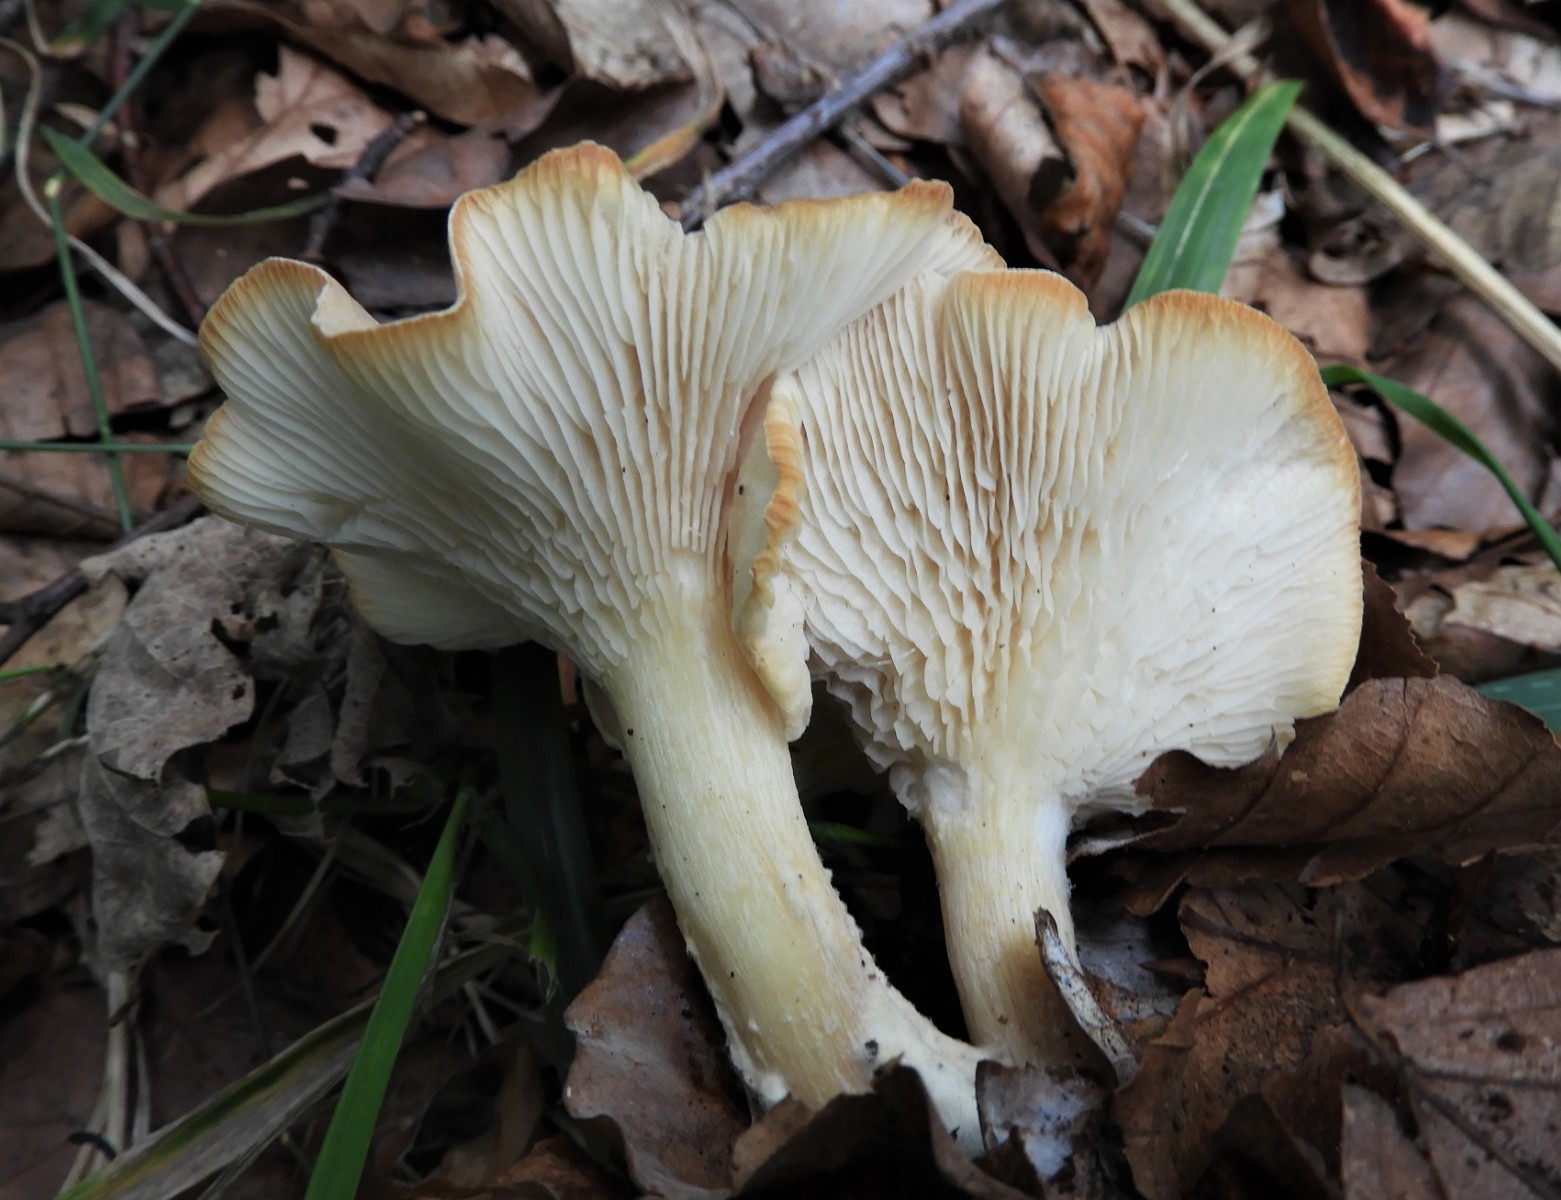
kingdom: Fungi
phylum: Basidiomycota
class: Agaricomycetes
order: Agaricales
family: Tricholomataceae
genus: Infundibulicybe
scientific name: Infundibulicybe gibba
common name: almindelig tragthat
